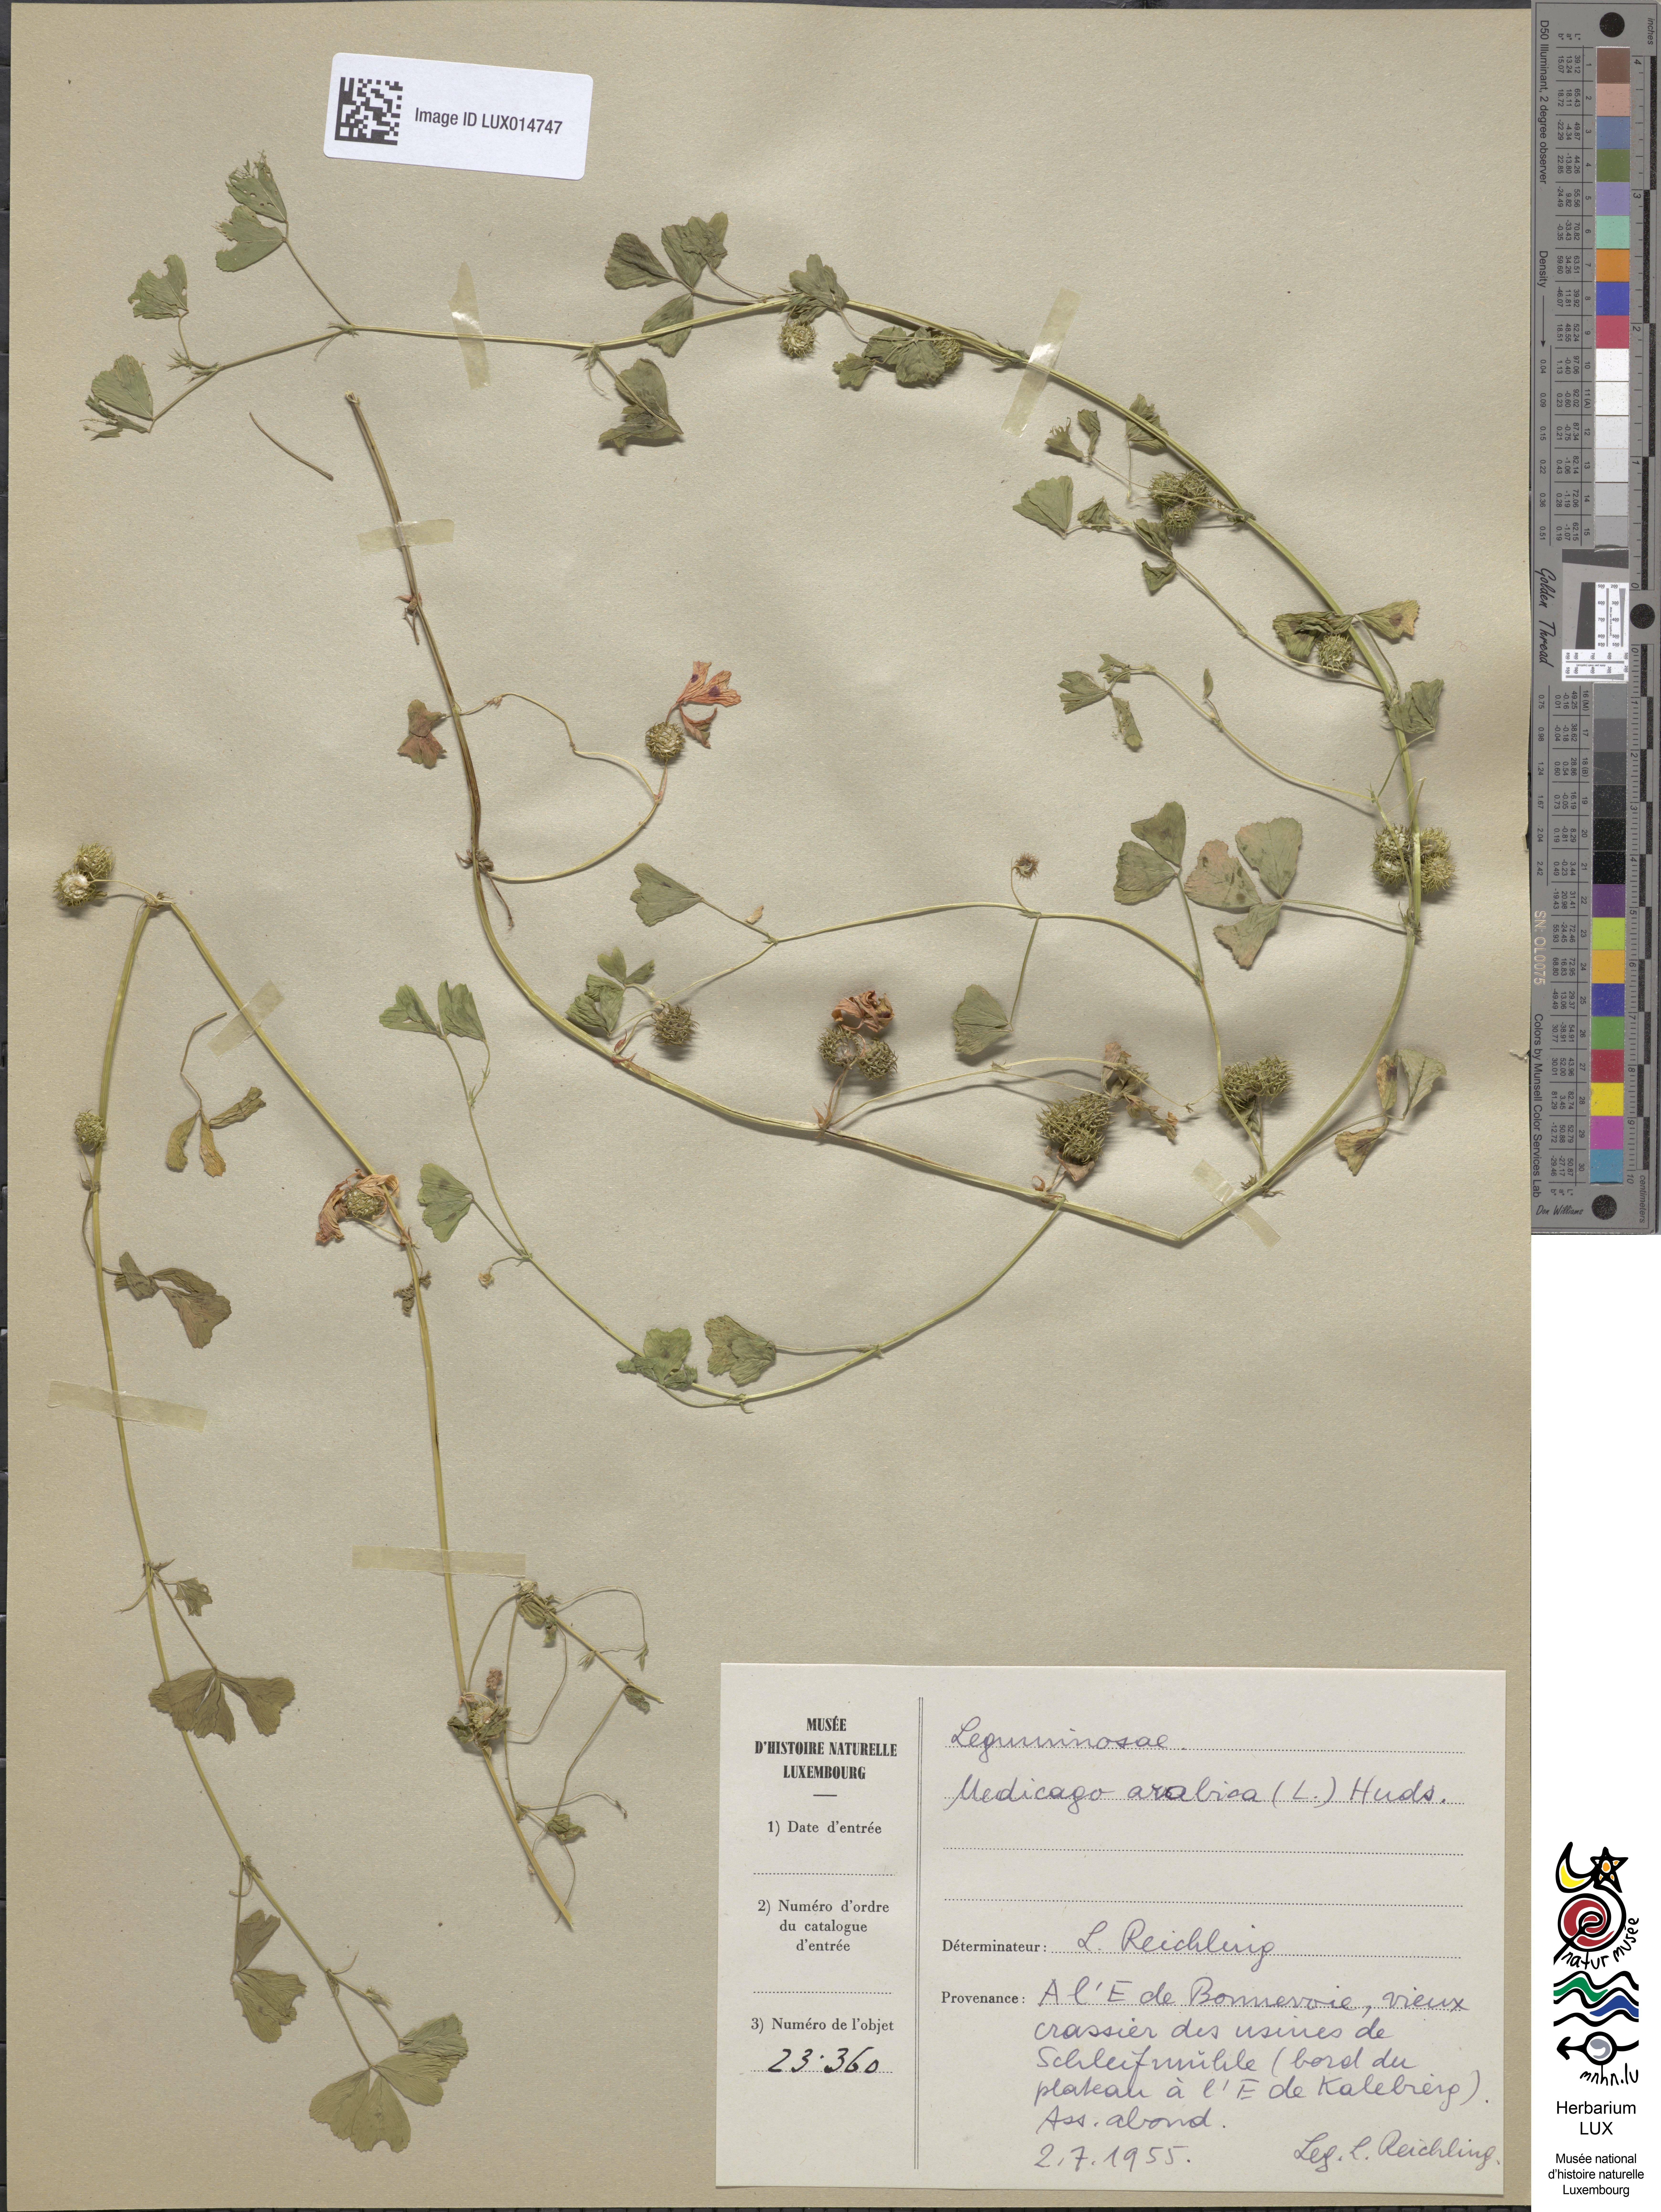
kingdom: Plantae
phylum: Tracheophyta
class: Magnoliopsida
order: Fabales
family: Fabaceae
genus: Medicago
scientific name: Medicago arabica
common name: Spotted medick
